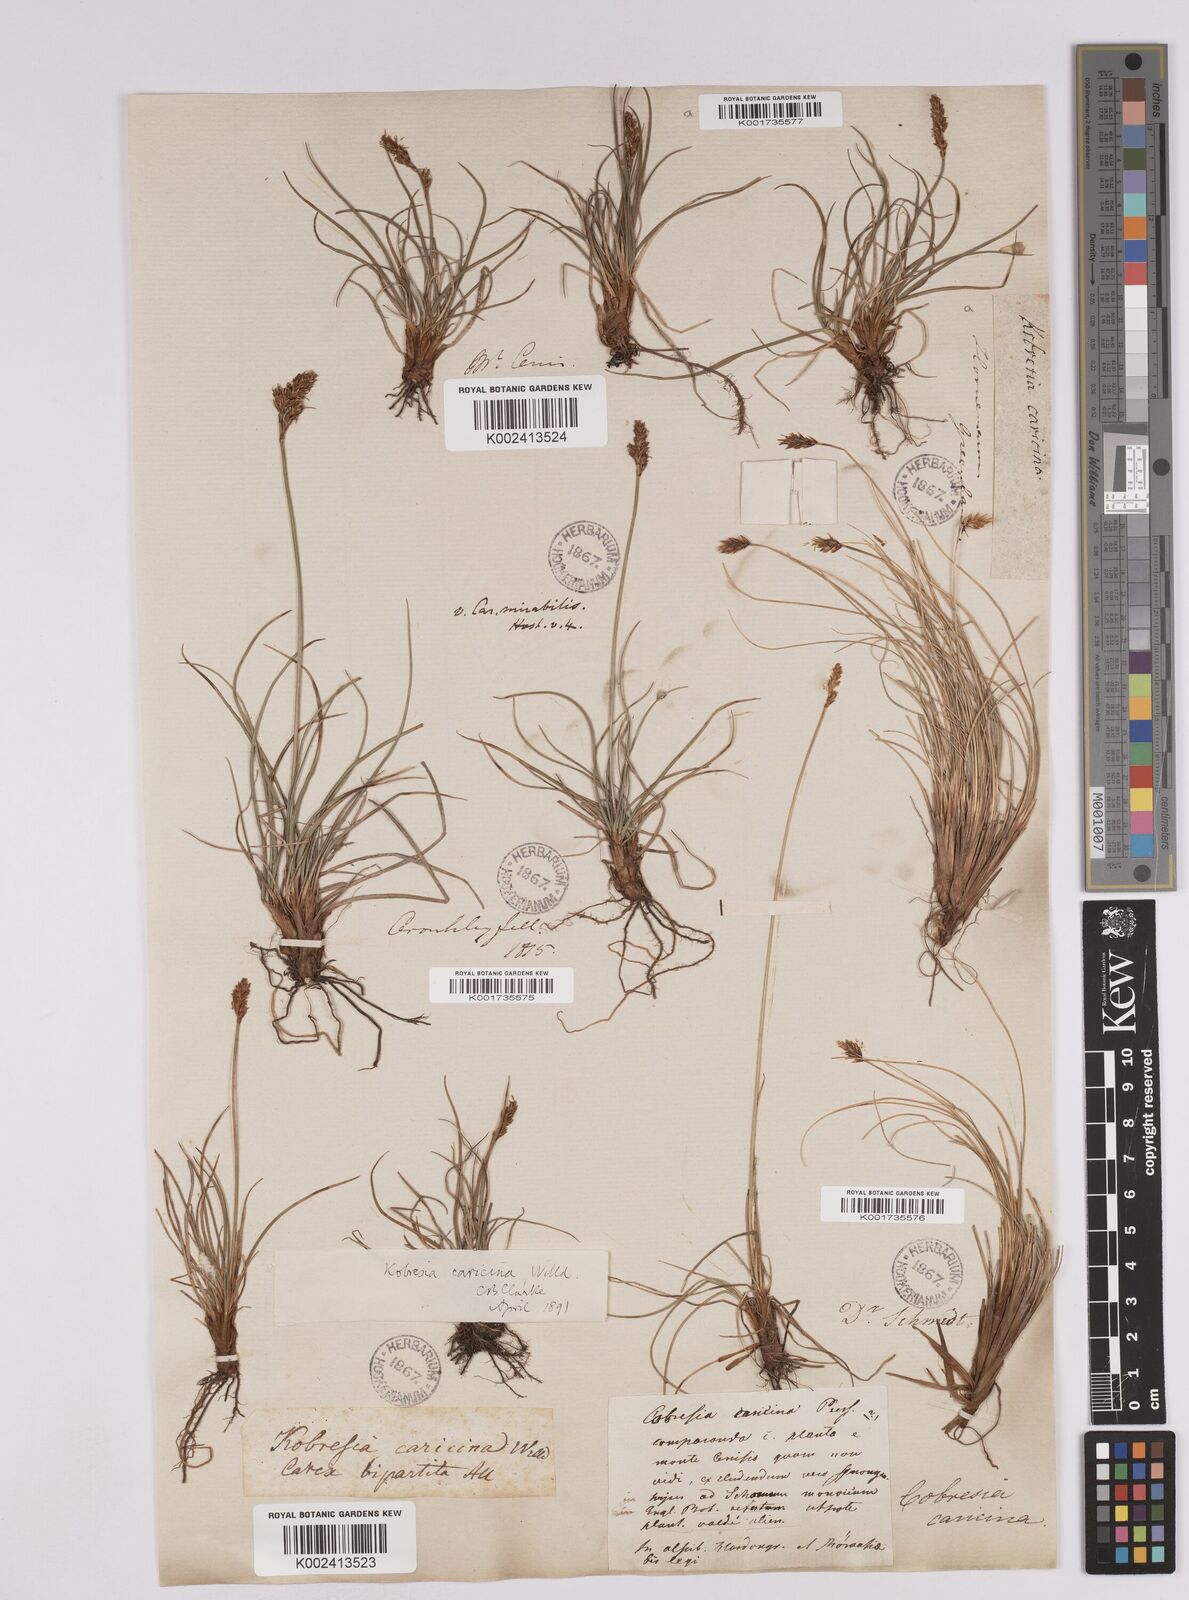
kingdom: Plantae
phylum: Tracheophyta
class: Liliopsida
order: Poales
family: Cyperaceae
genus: Carex
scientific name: Carex simpliciuscula
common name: Simple bog sedge
